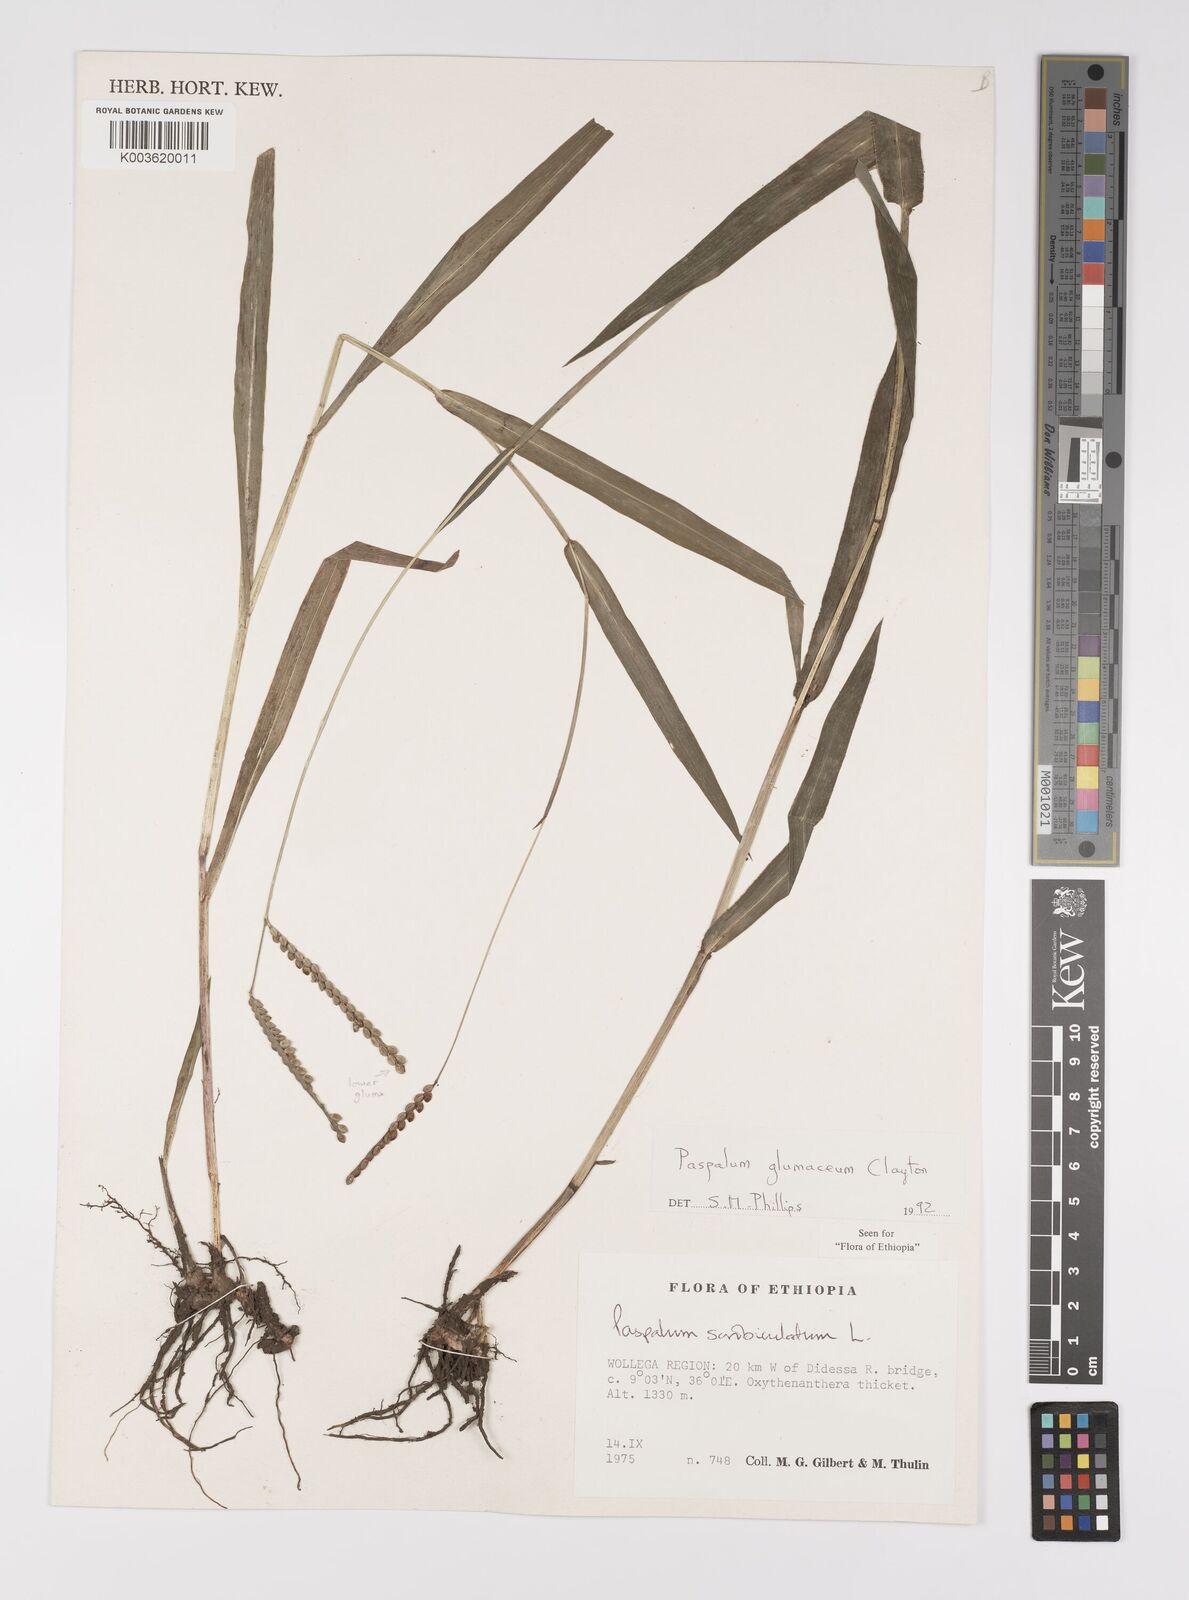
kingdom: Plantae
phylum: Tracheophyta
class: Liliopsida
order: Poales
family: Poaceae
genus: Paspalum
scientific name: Paspalum glumaceum
